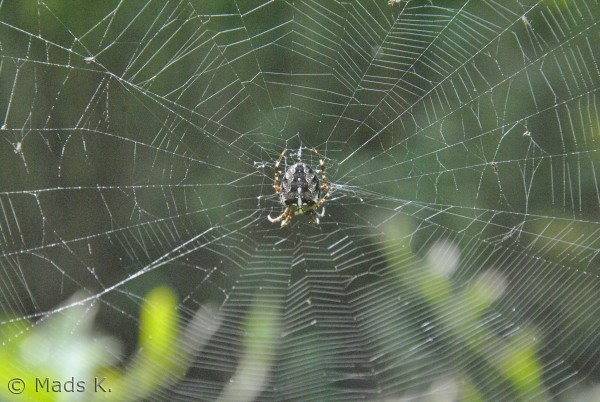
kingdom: Animalia
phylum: Arthropoda
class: Arachnida
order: Araneae
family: Araneidae
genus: Araneus
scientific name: Araneus diadematus
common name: Korsedderkop
